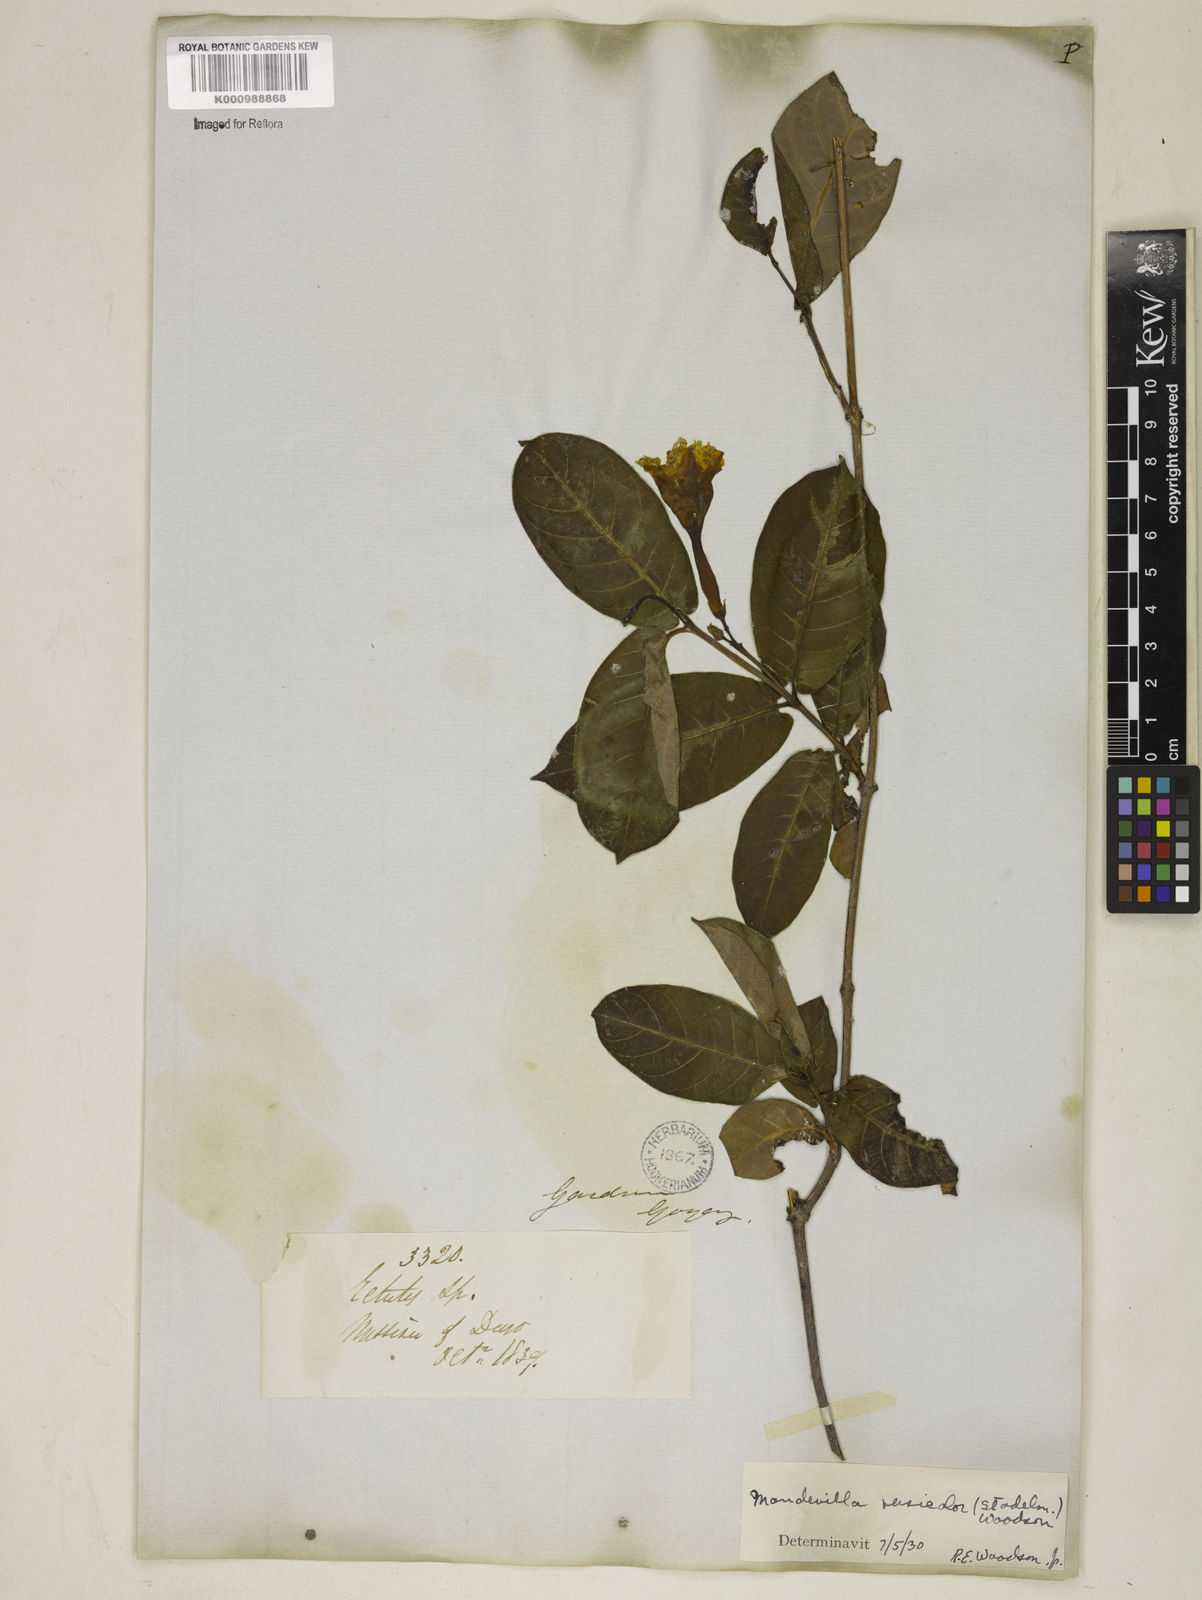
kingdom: Plantae
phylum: Tracheophyta
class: Magnoliopsida
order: Gentianales
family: Apocynaceae
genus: Mandevilla
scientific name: Mandevilla scabra
